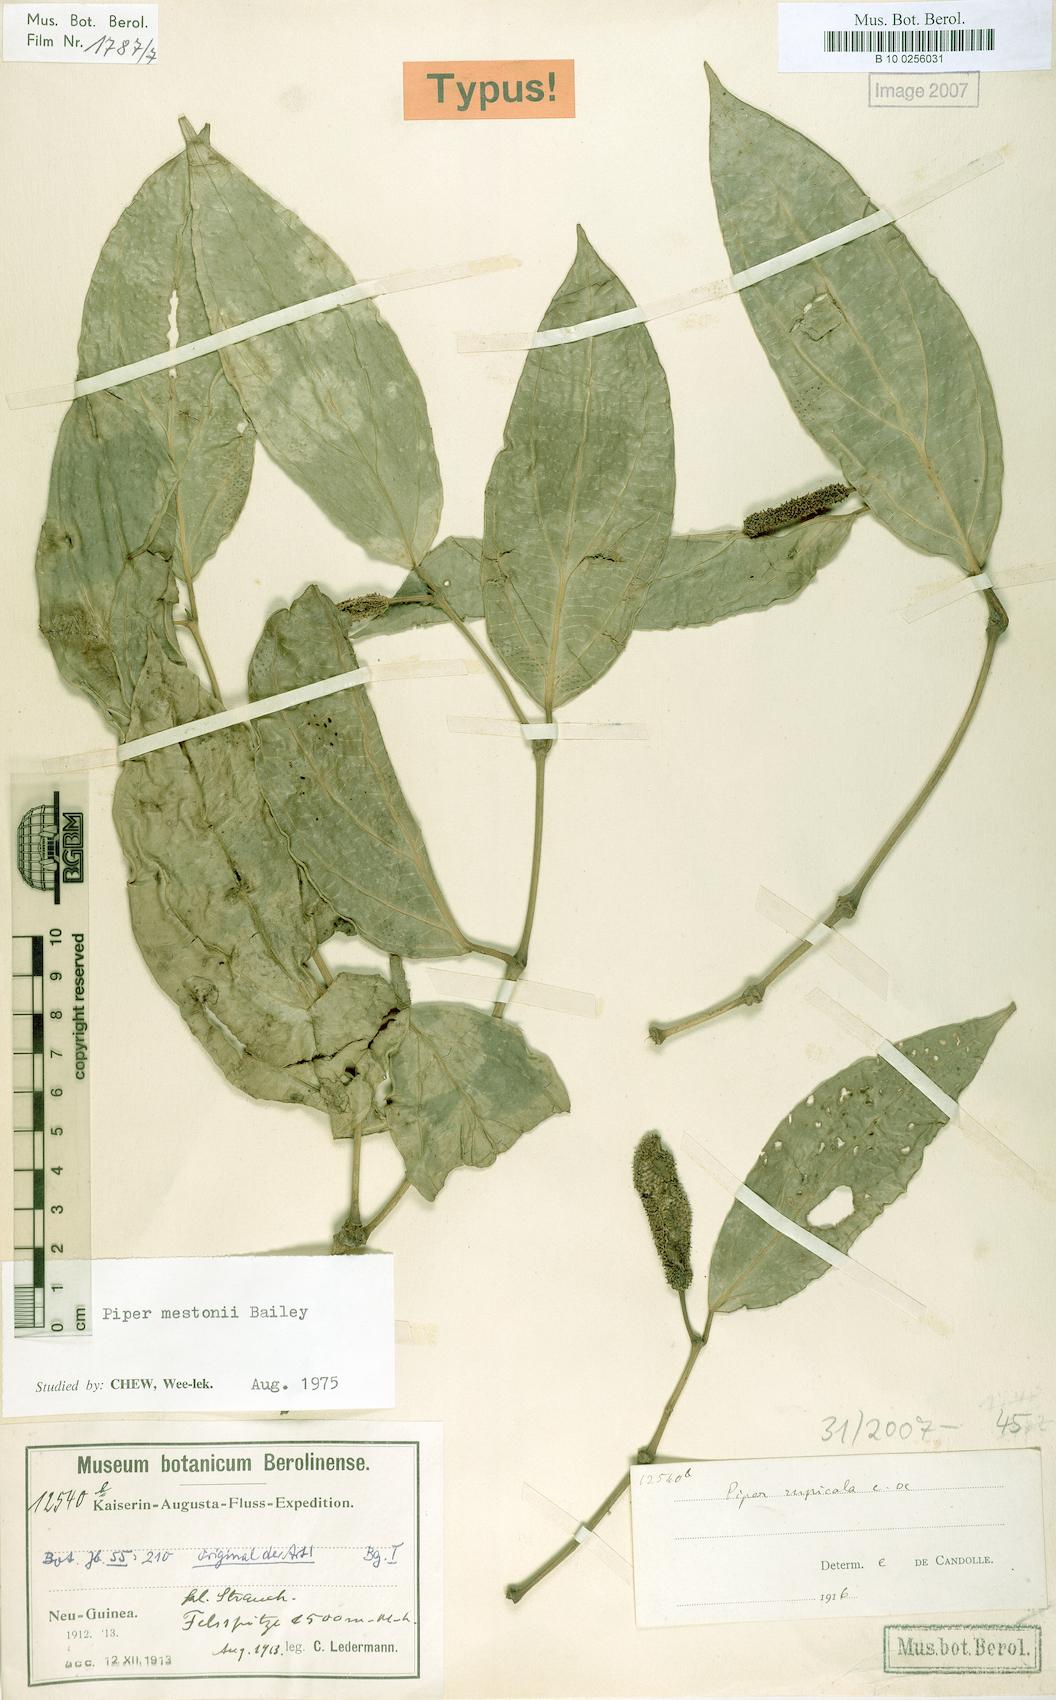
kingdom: Plantae
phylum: Tracheophyta
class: Magnoliopsida
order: Piperales
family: Piperaceae
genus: Piper
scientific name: Piper mestonii
